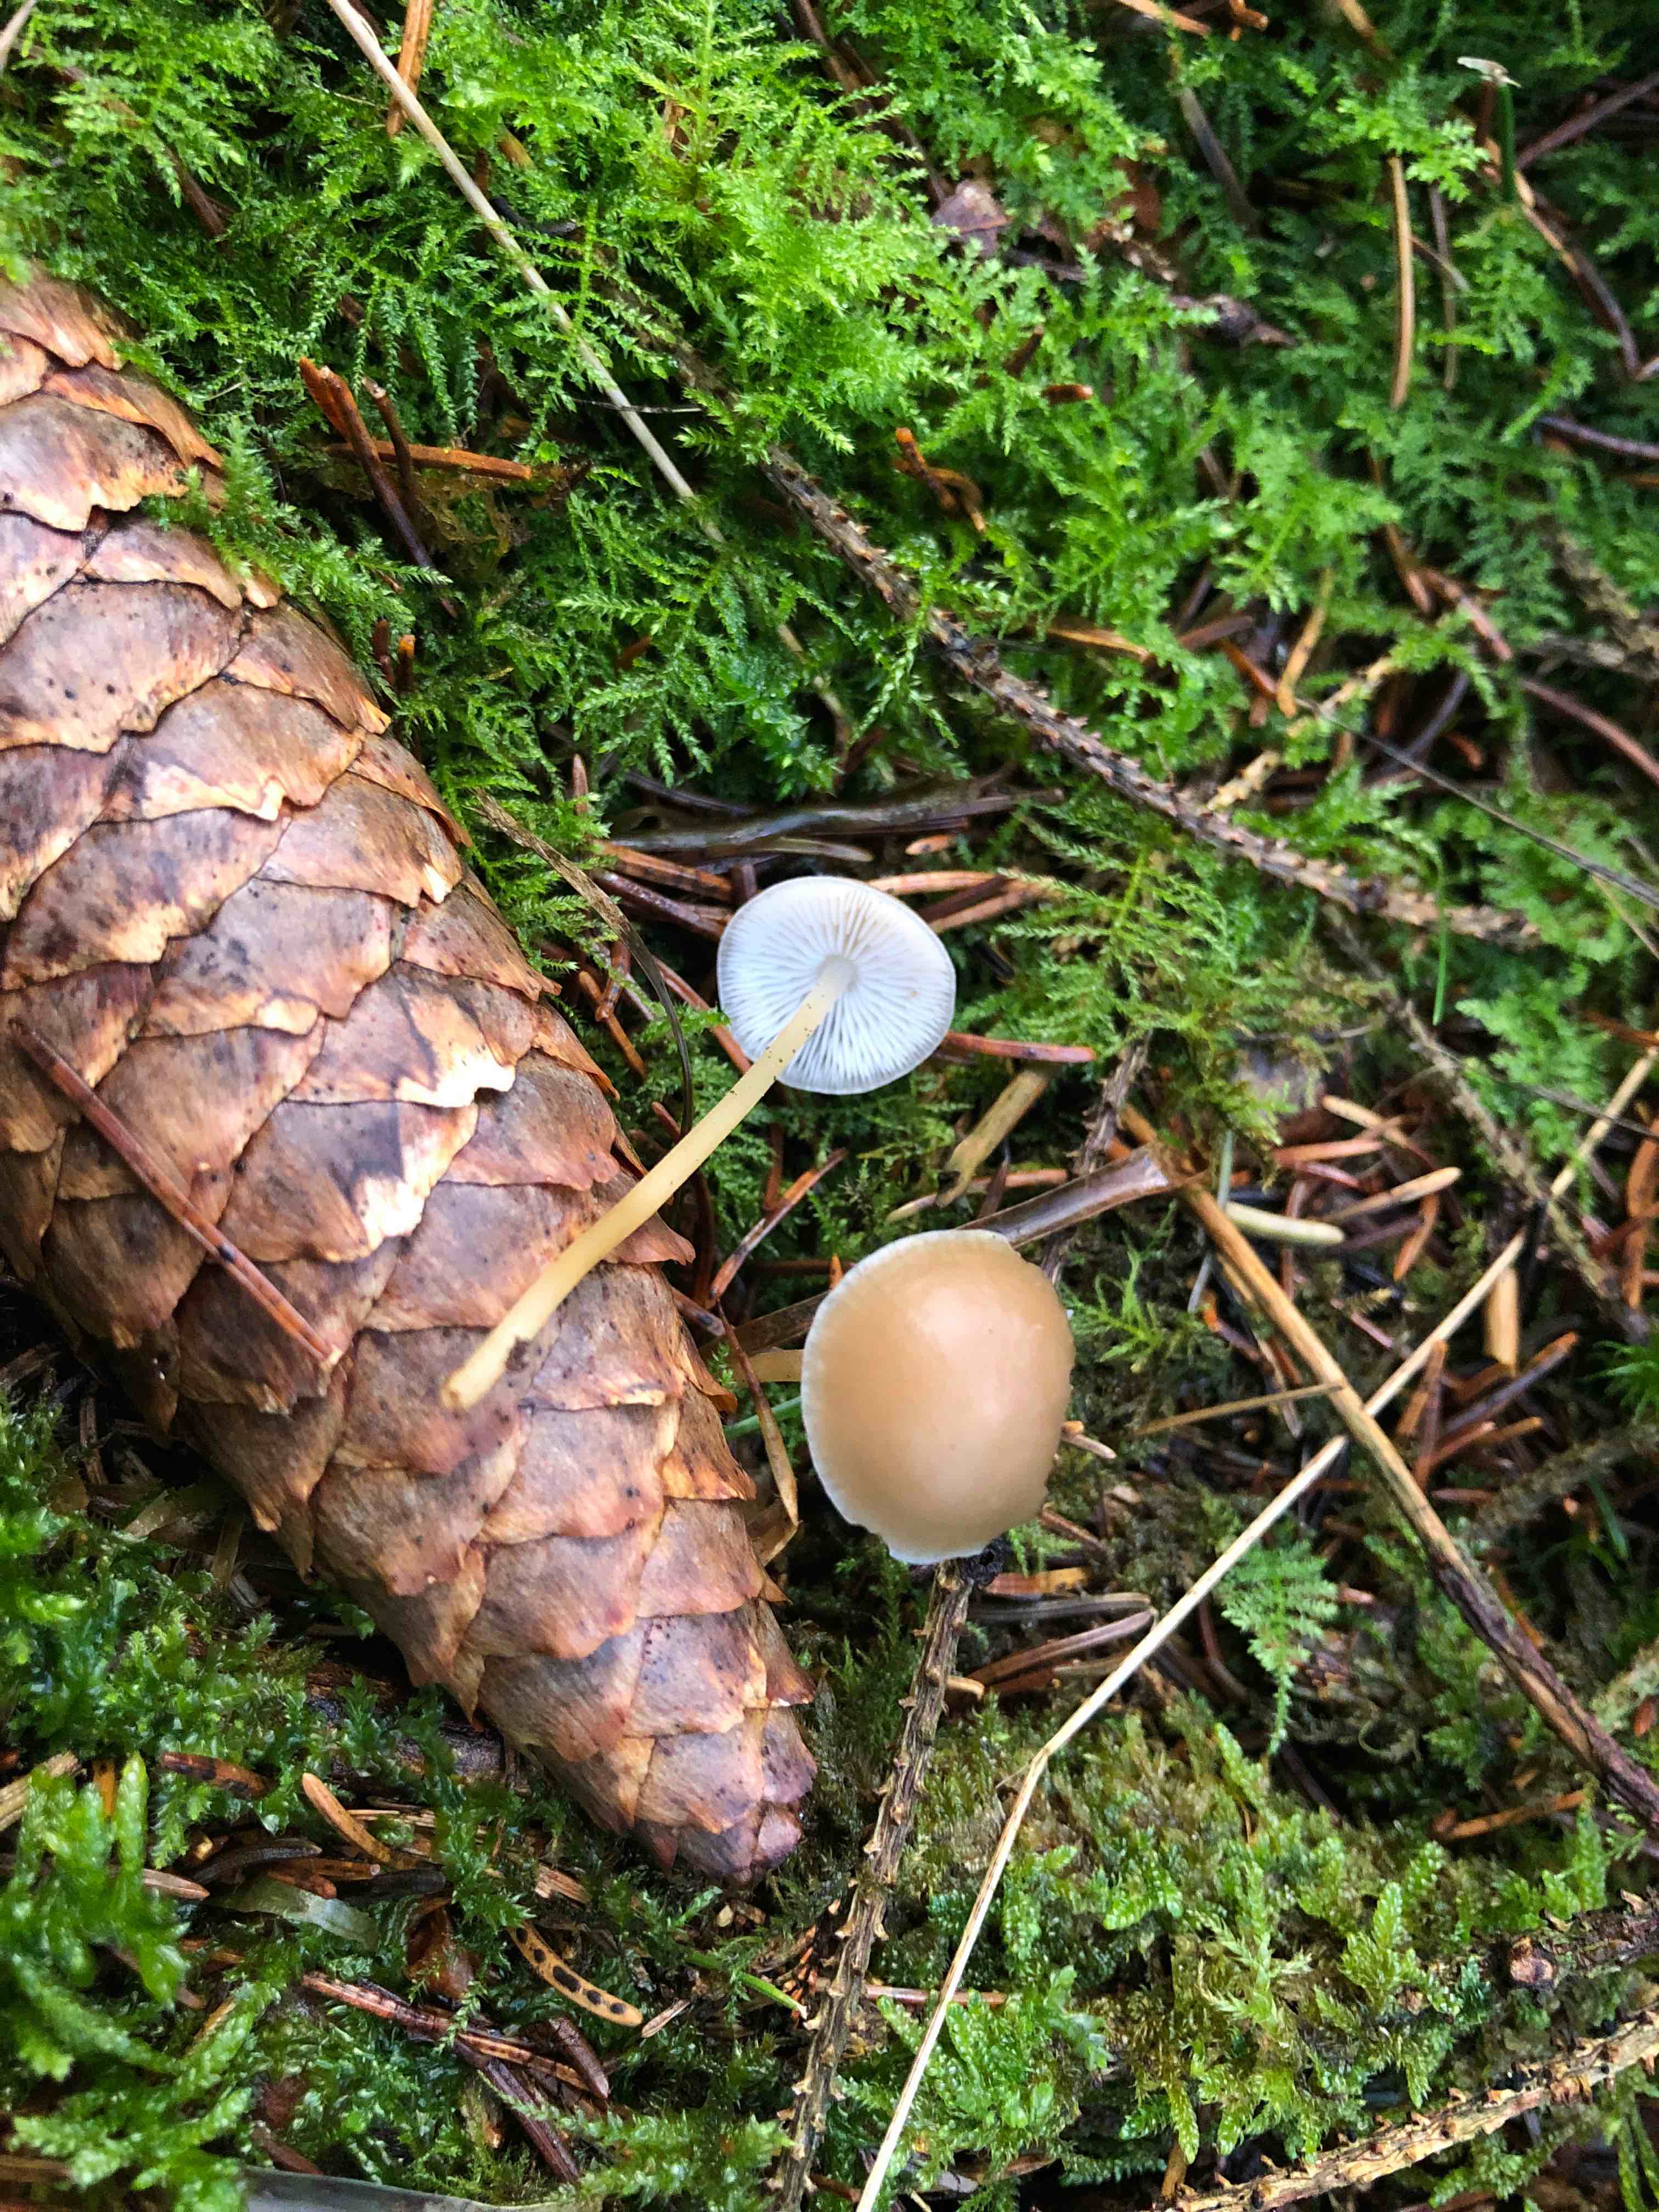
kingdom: Fungi
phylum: Basidiomycota
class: Agaricomycetes
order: Agaricales
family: Physalacriaceae
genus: Strobilurus
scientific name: Strobilurus esculentus
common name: gran-koglehat
